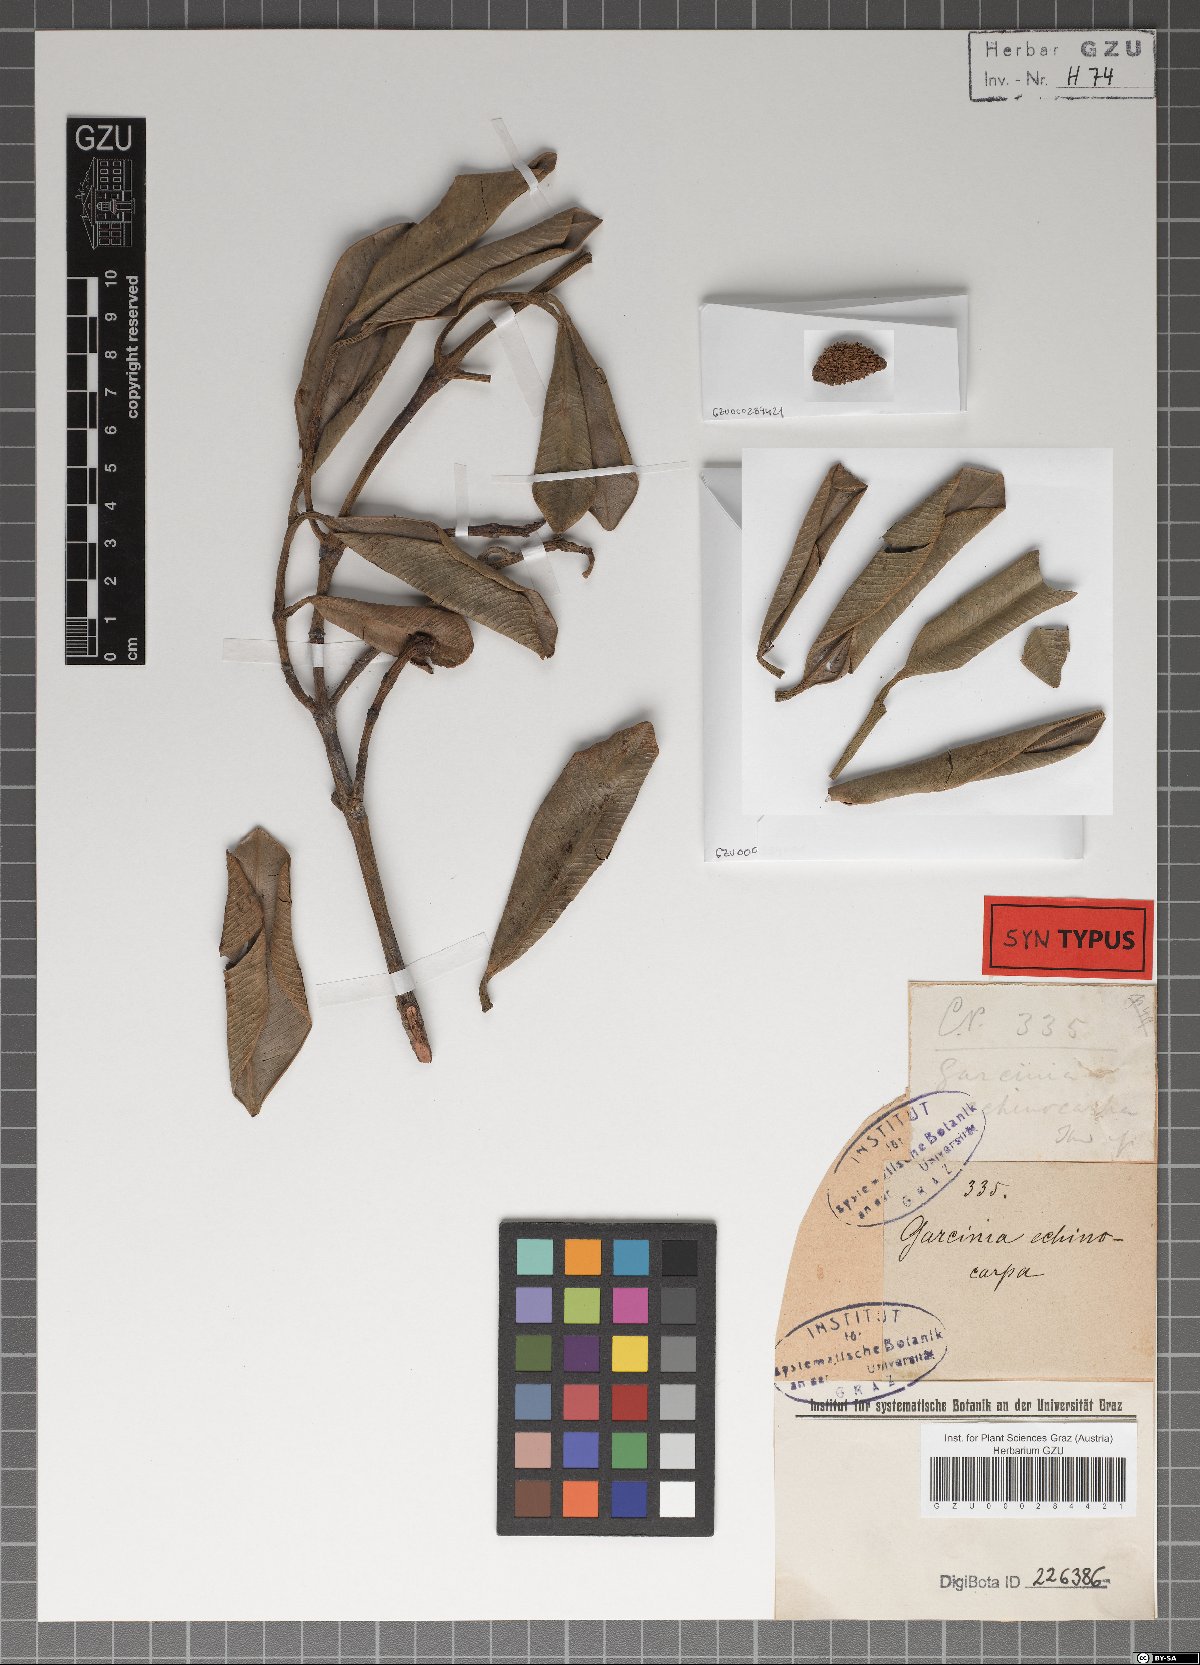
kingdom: Plantae
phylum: Tracheophyta
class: Magnoliopsida
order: Malpighiales
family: Clusiaceae
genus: Garcinia
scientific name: Garcinia echinocarpa
